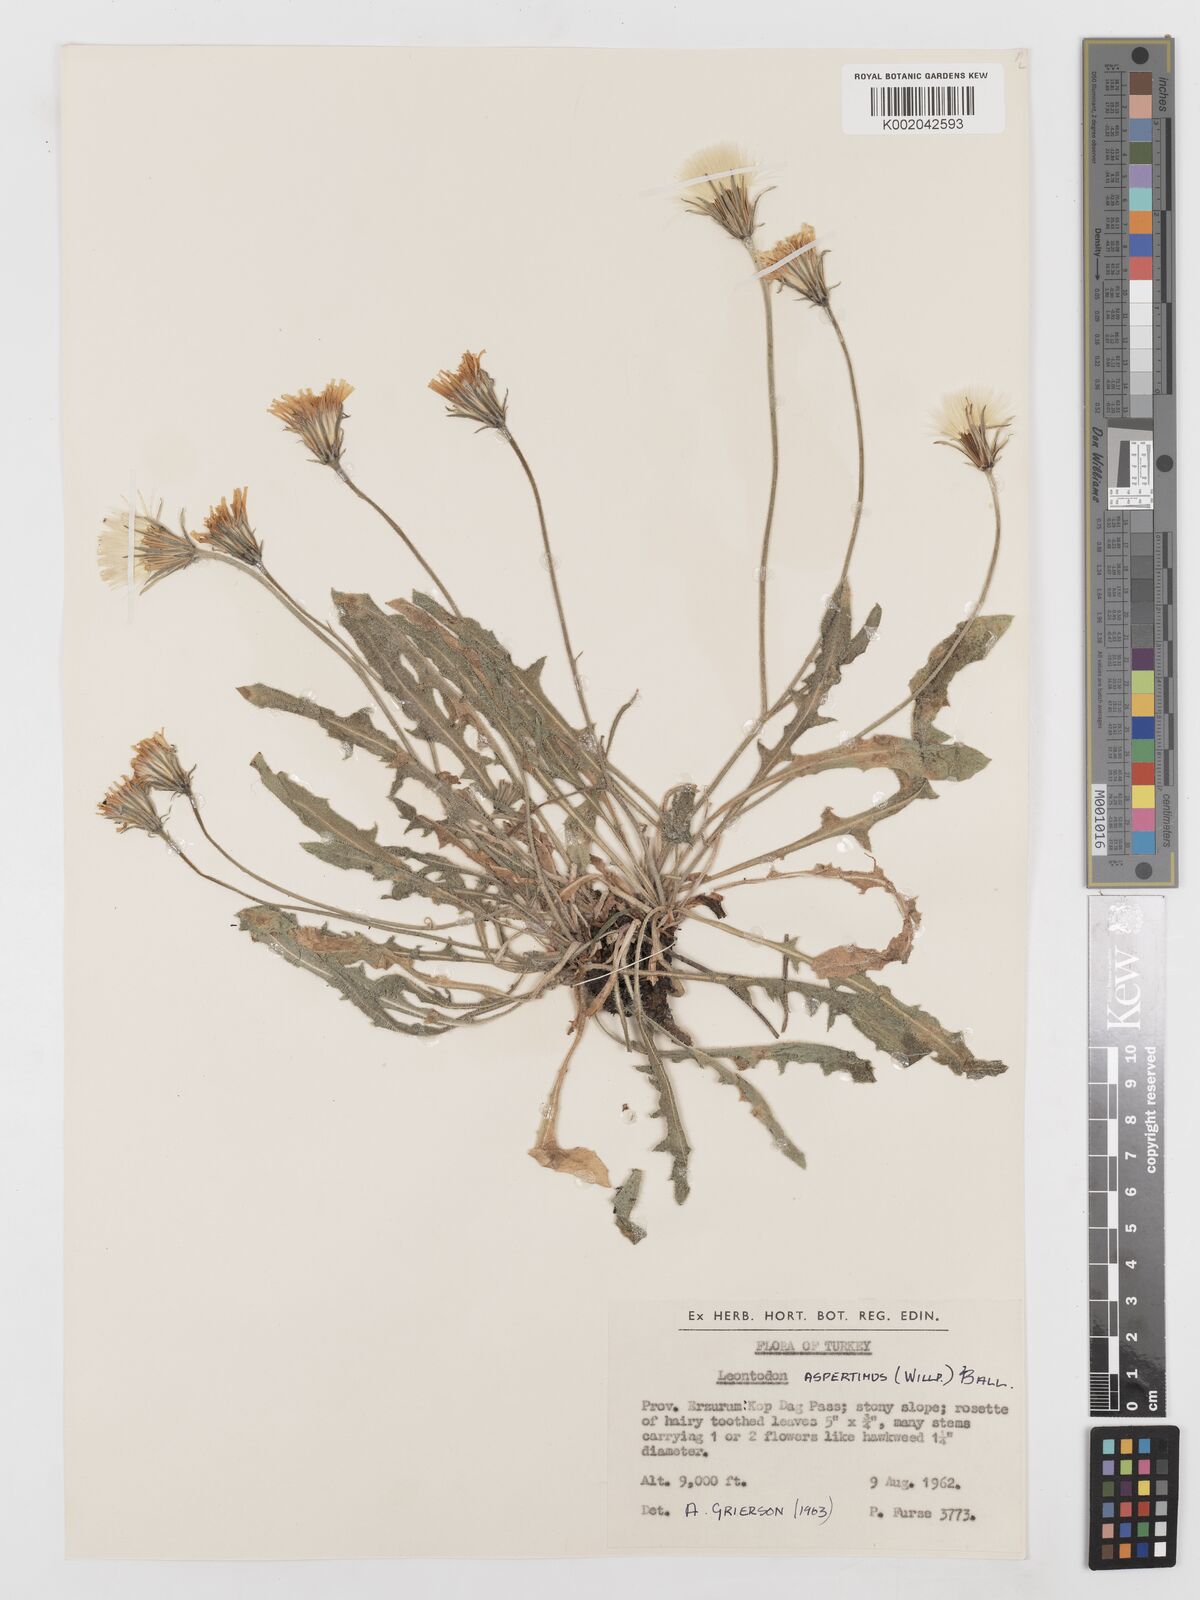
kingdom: Plantae
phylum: Tracheophyta
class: Magnoliopsida
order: Asterales
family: Asteraceae
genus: Leontodon
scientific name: Leontodon biscutellifolius
